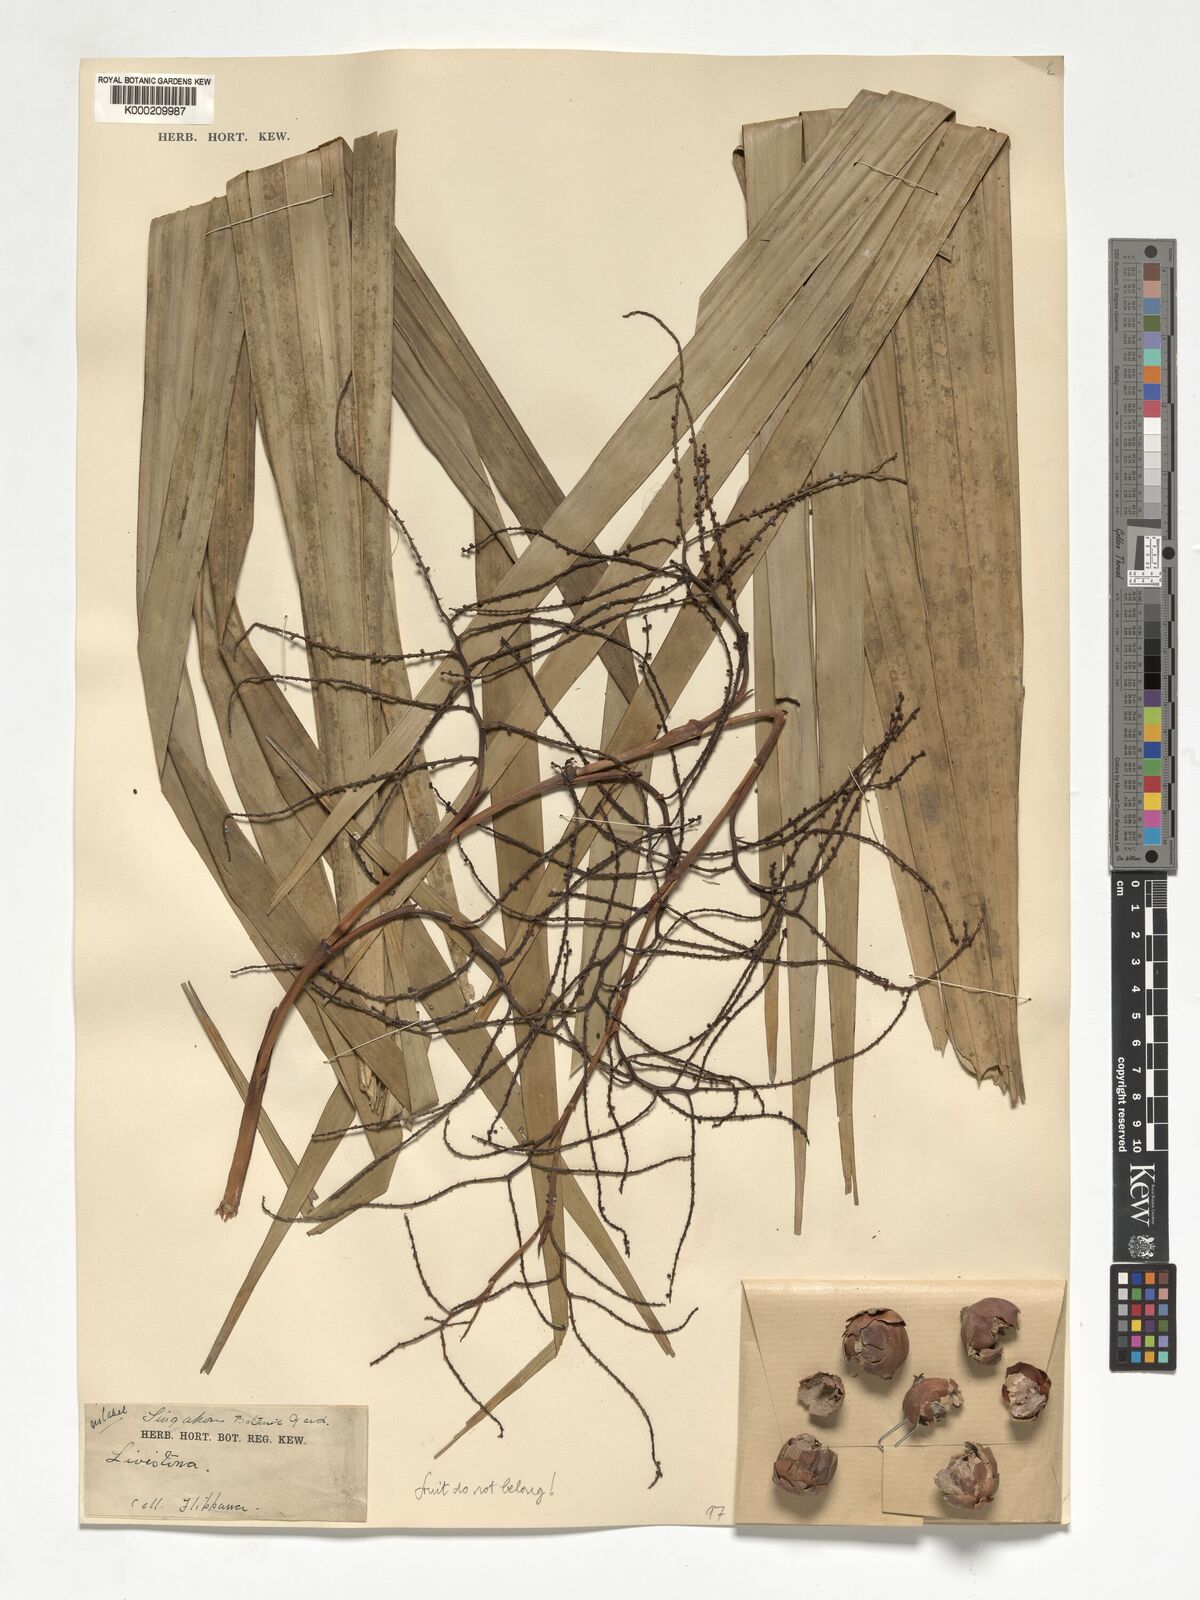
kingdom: Plantae
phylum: Tracheophyta
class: Liliopsida
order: Arecales
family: Arecaceae
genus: Livistona
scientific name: Livistona
